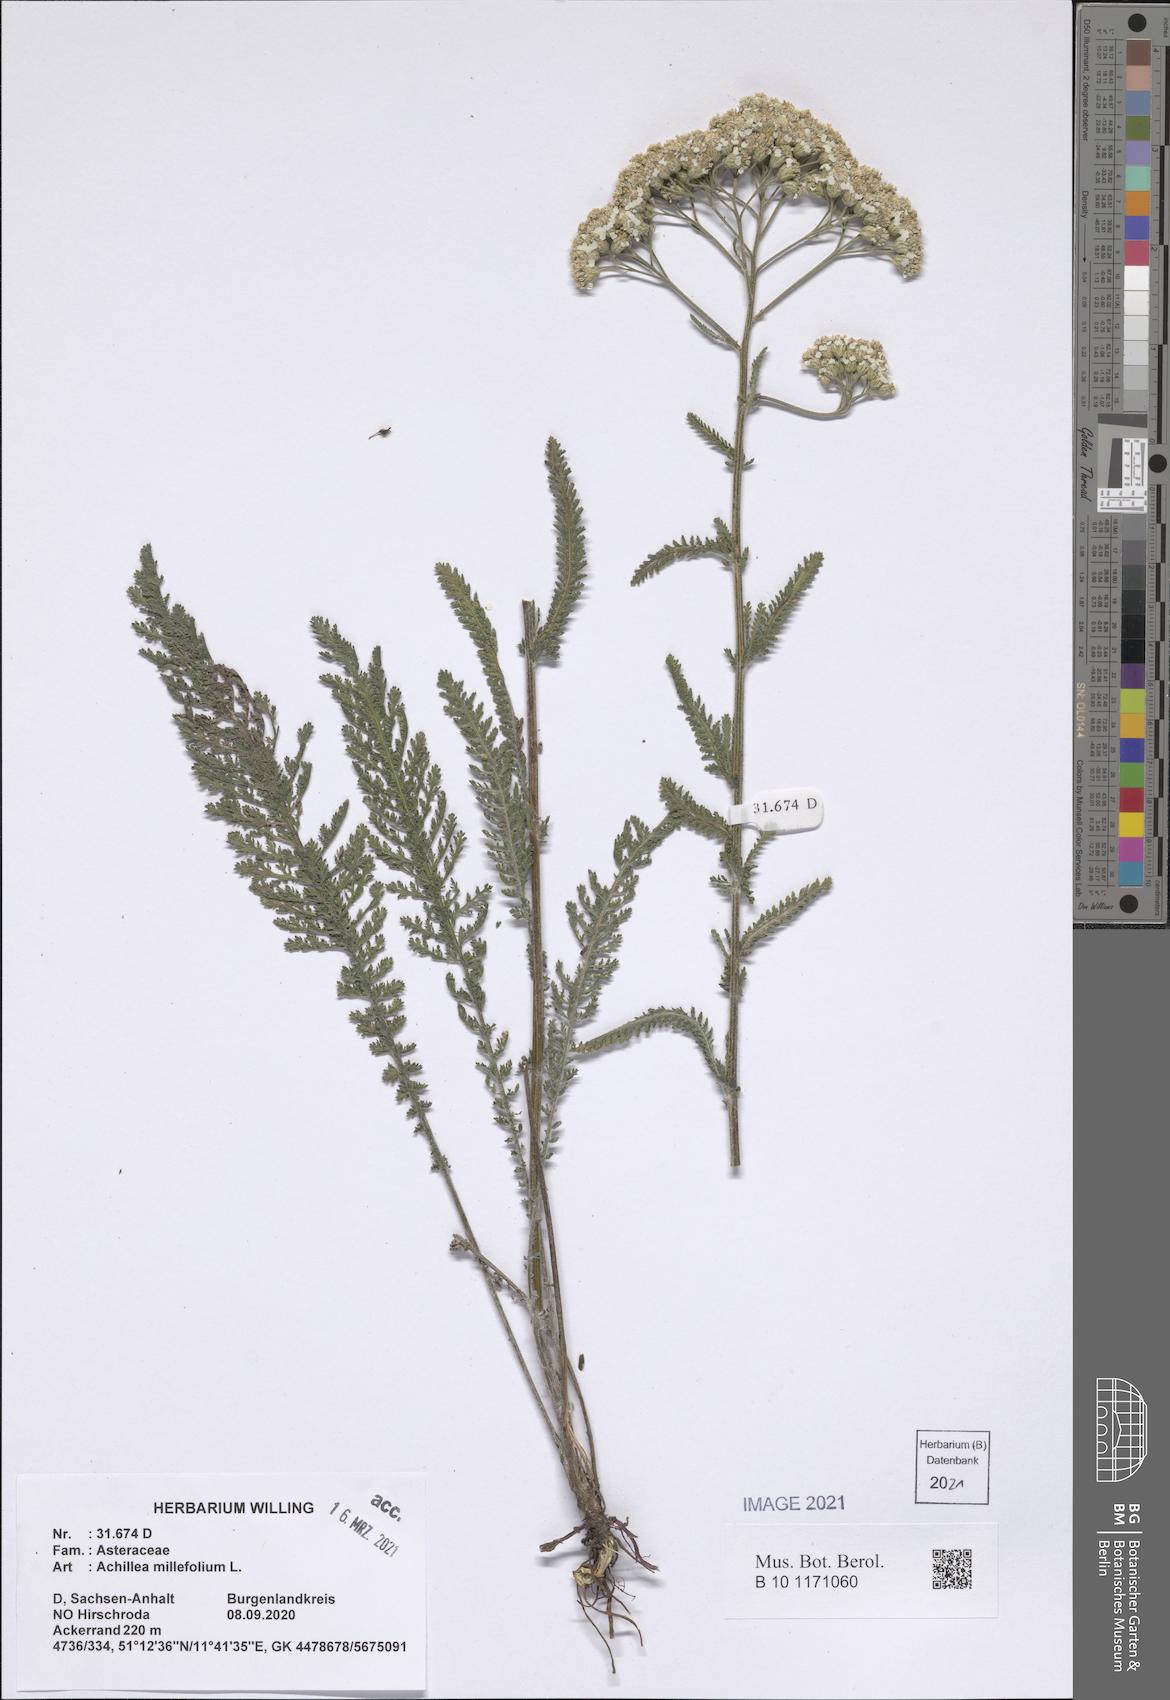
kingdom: Plantae
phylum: Tracheophyta
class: Magnoliopsida
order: Asterales
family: Asteraceae
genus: Achillea
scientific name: Achillea millefolium
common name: Yarrow
